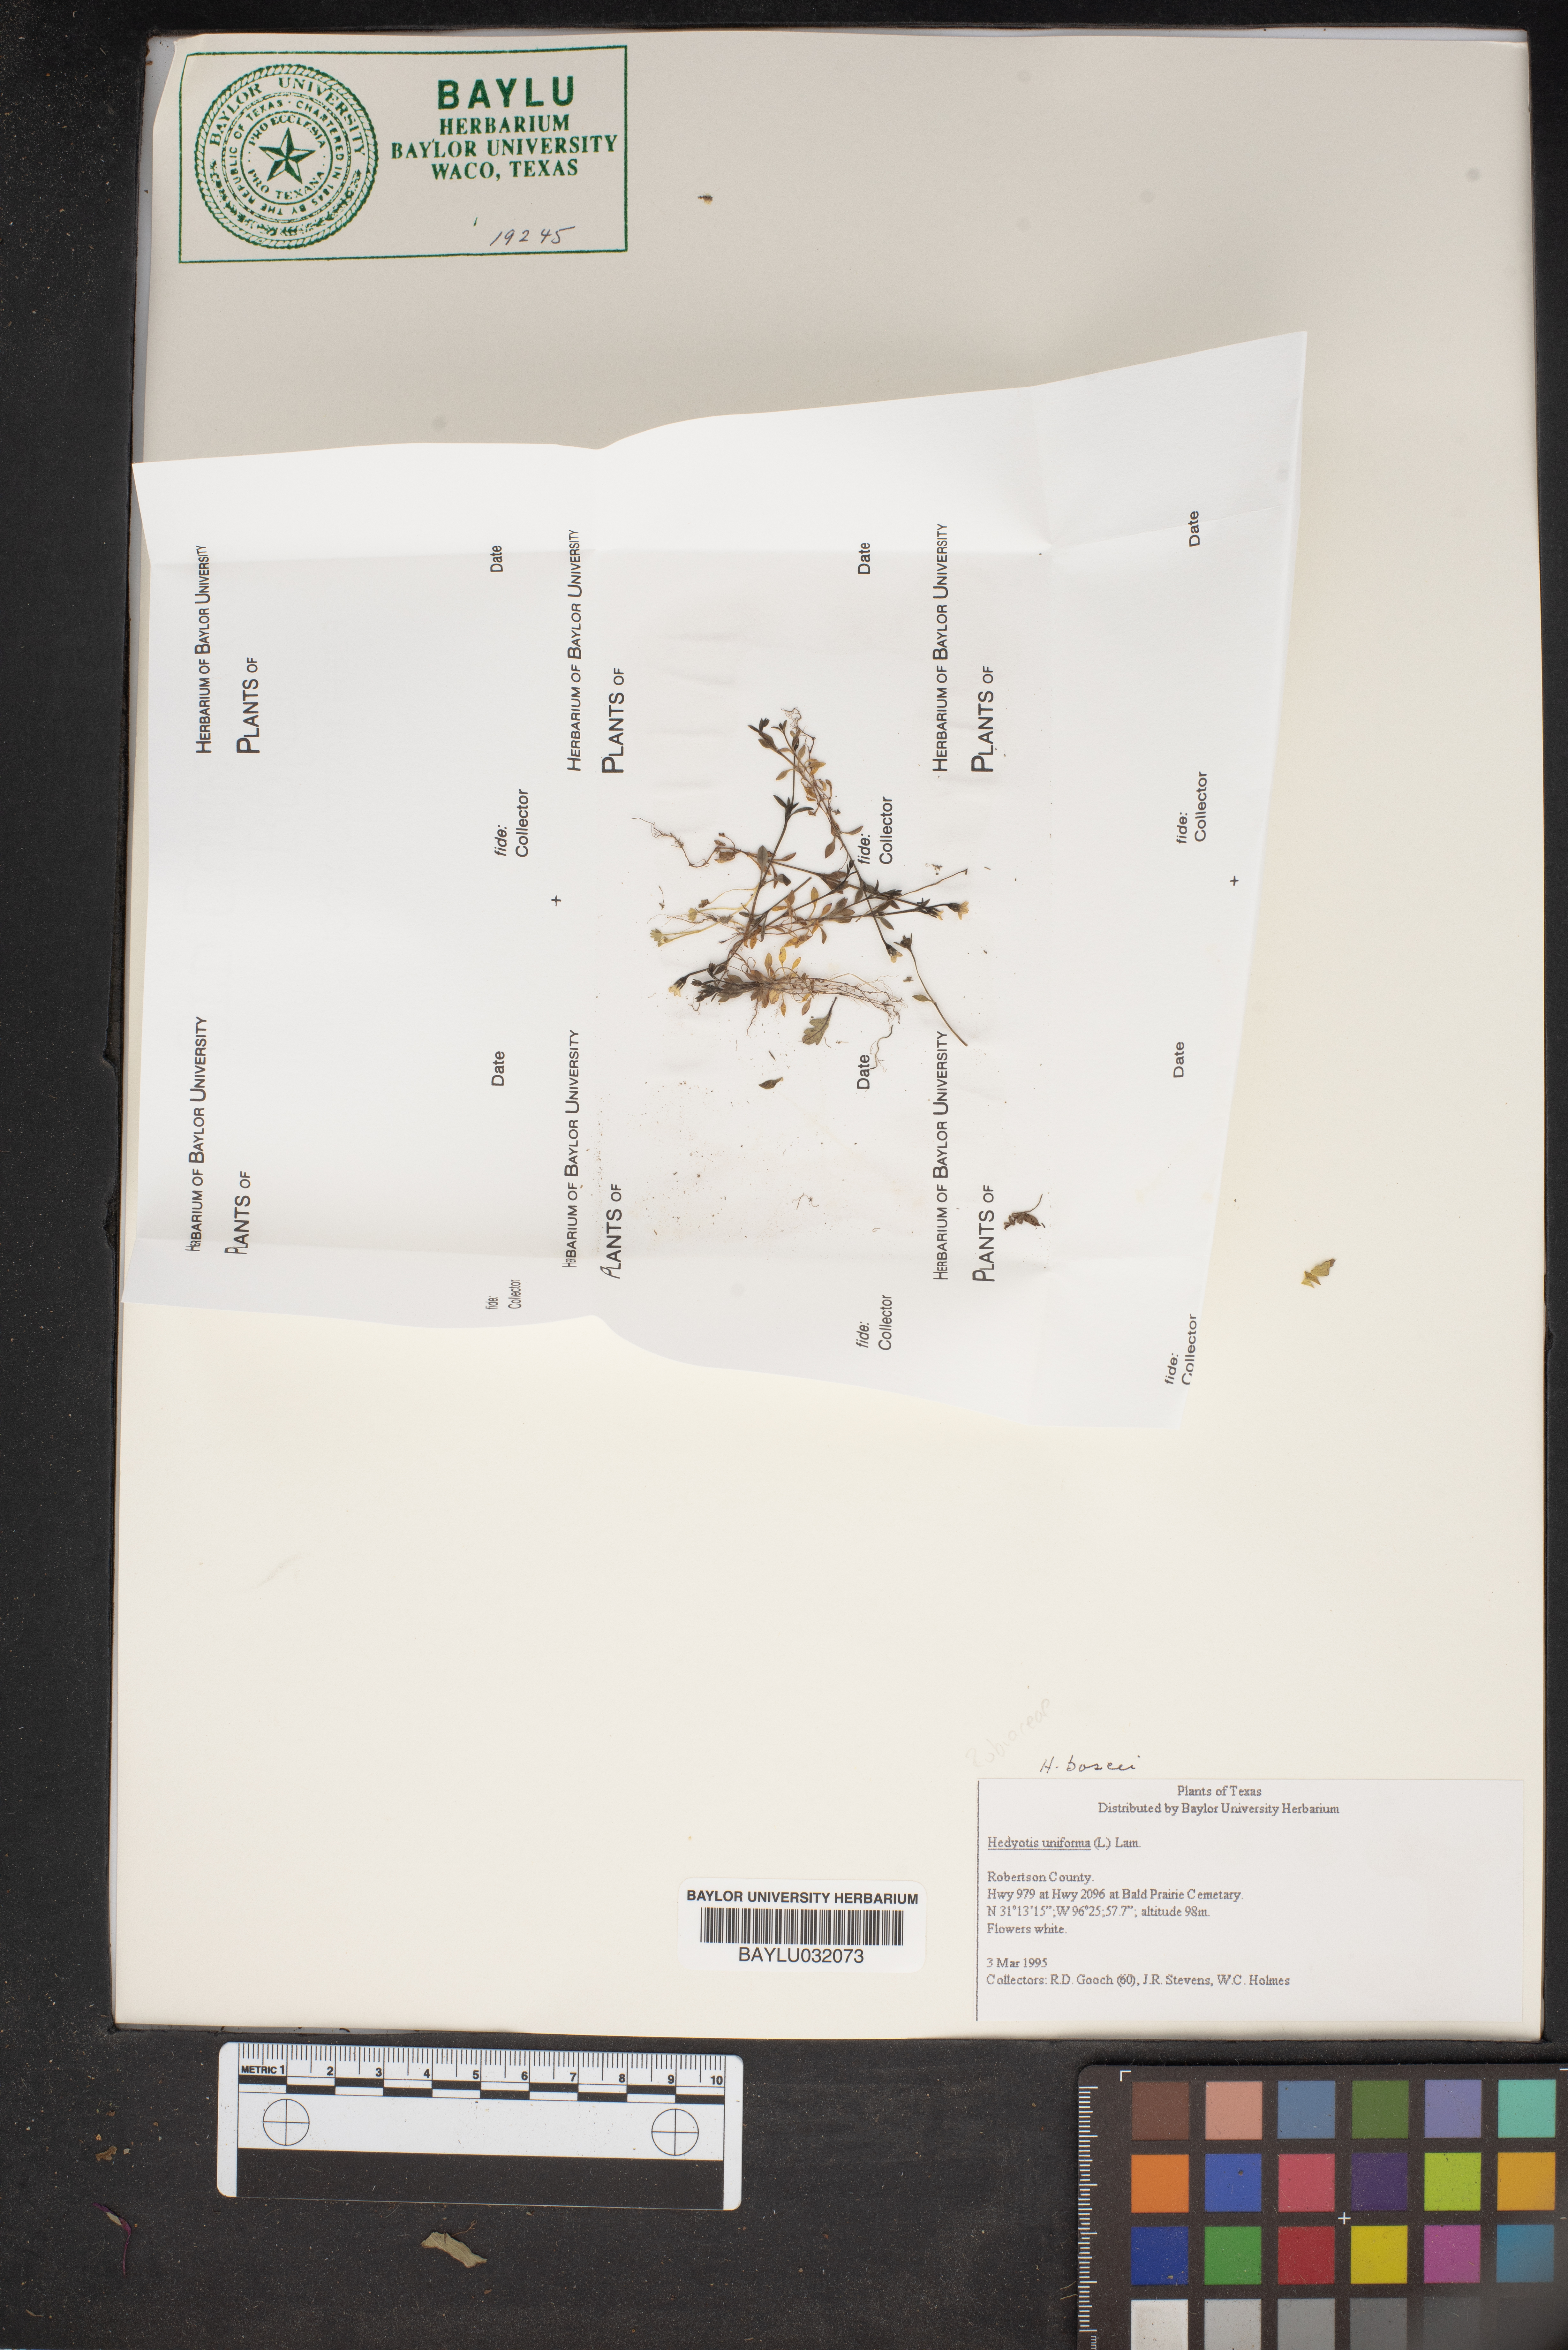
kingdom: Plantae
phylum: Tracheophyta
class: Magnoliopsida
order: Gentianales
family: Rubiaceae
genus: Edrastima
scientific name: Edrastima uniflora
